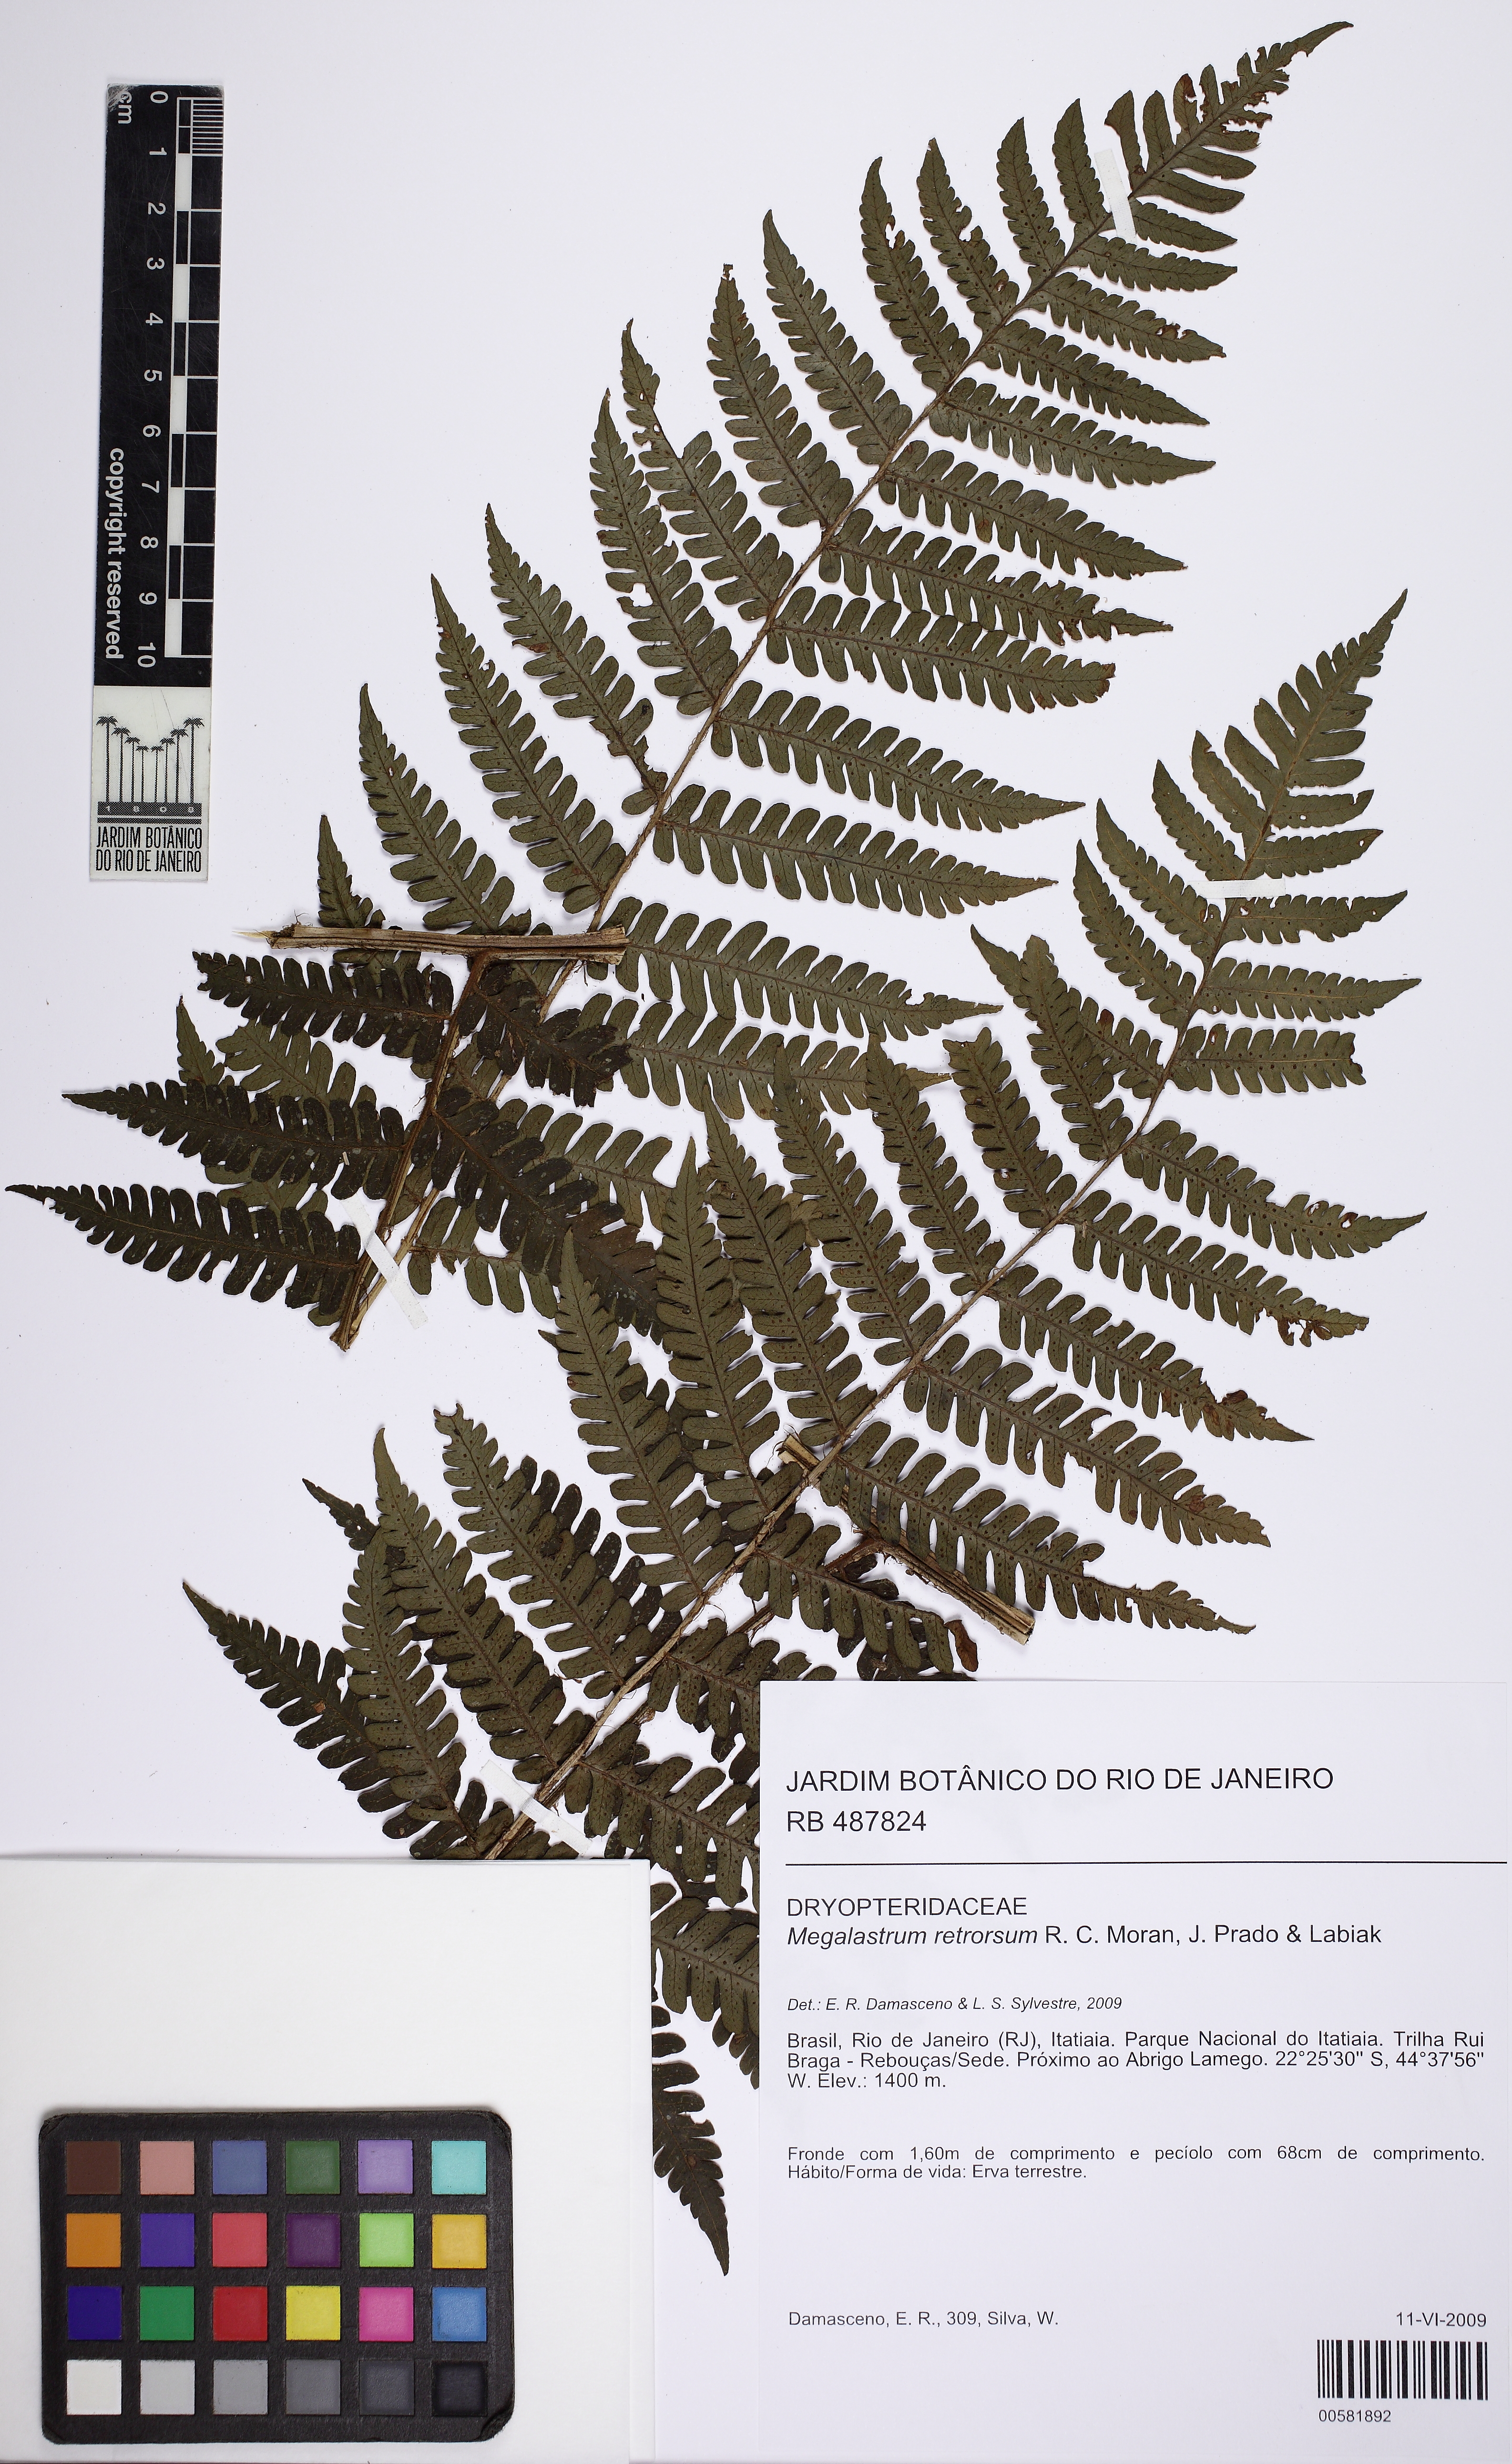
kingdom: Plantae
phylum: Tracheophyta
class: Polypodiopsida
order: Polypodiales
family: Dryopteridaceae
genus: Megalastrum
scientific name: Megalastrum retrorsum
